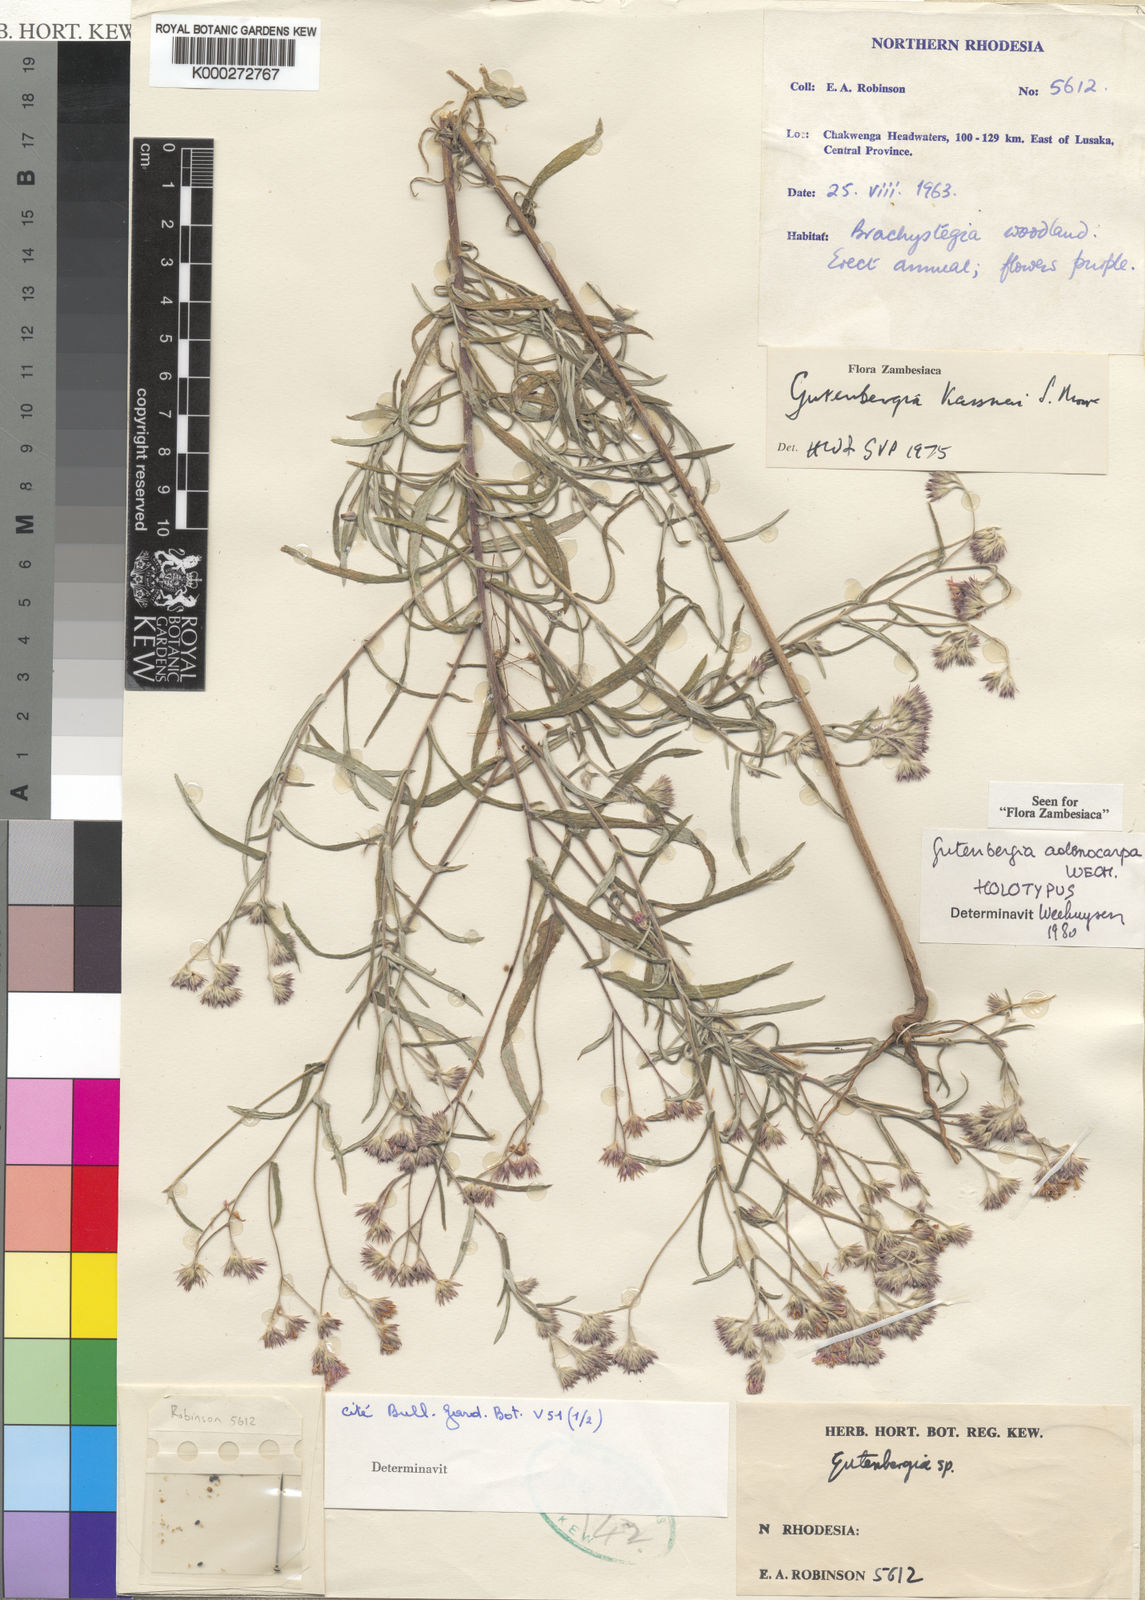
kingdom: Plantae
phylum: Tracheophyta
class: Magnoliopsida
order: Asterales
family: Asteraceae
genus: Gutenbergia
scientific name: Gutenbergia kassneri
